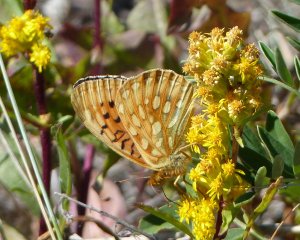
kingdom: Animalia
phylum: Arthropoda
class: Insecta
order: Lepidoptera
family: Nymphalidae
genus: Speyeria
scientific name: Speyeria mormonia
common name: Mormon Fritillary
